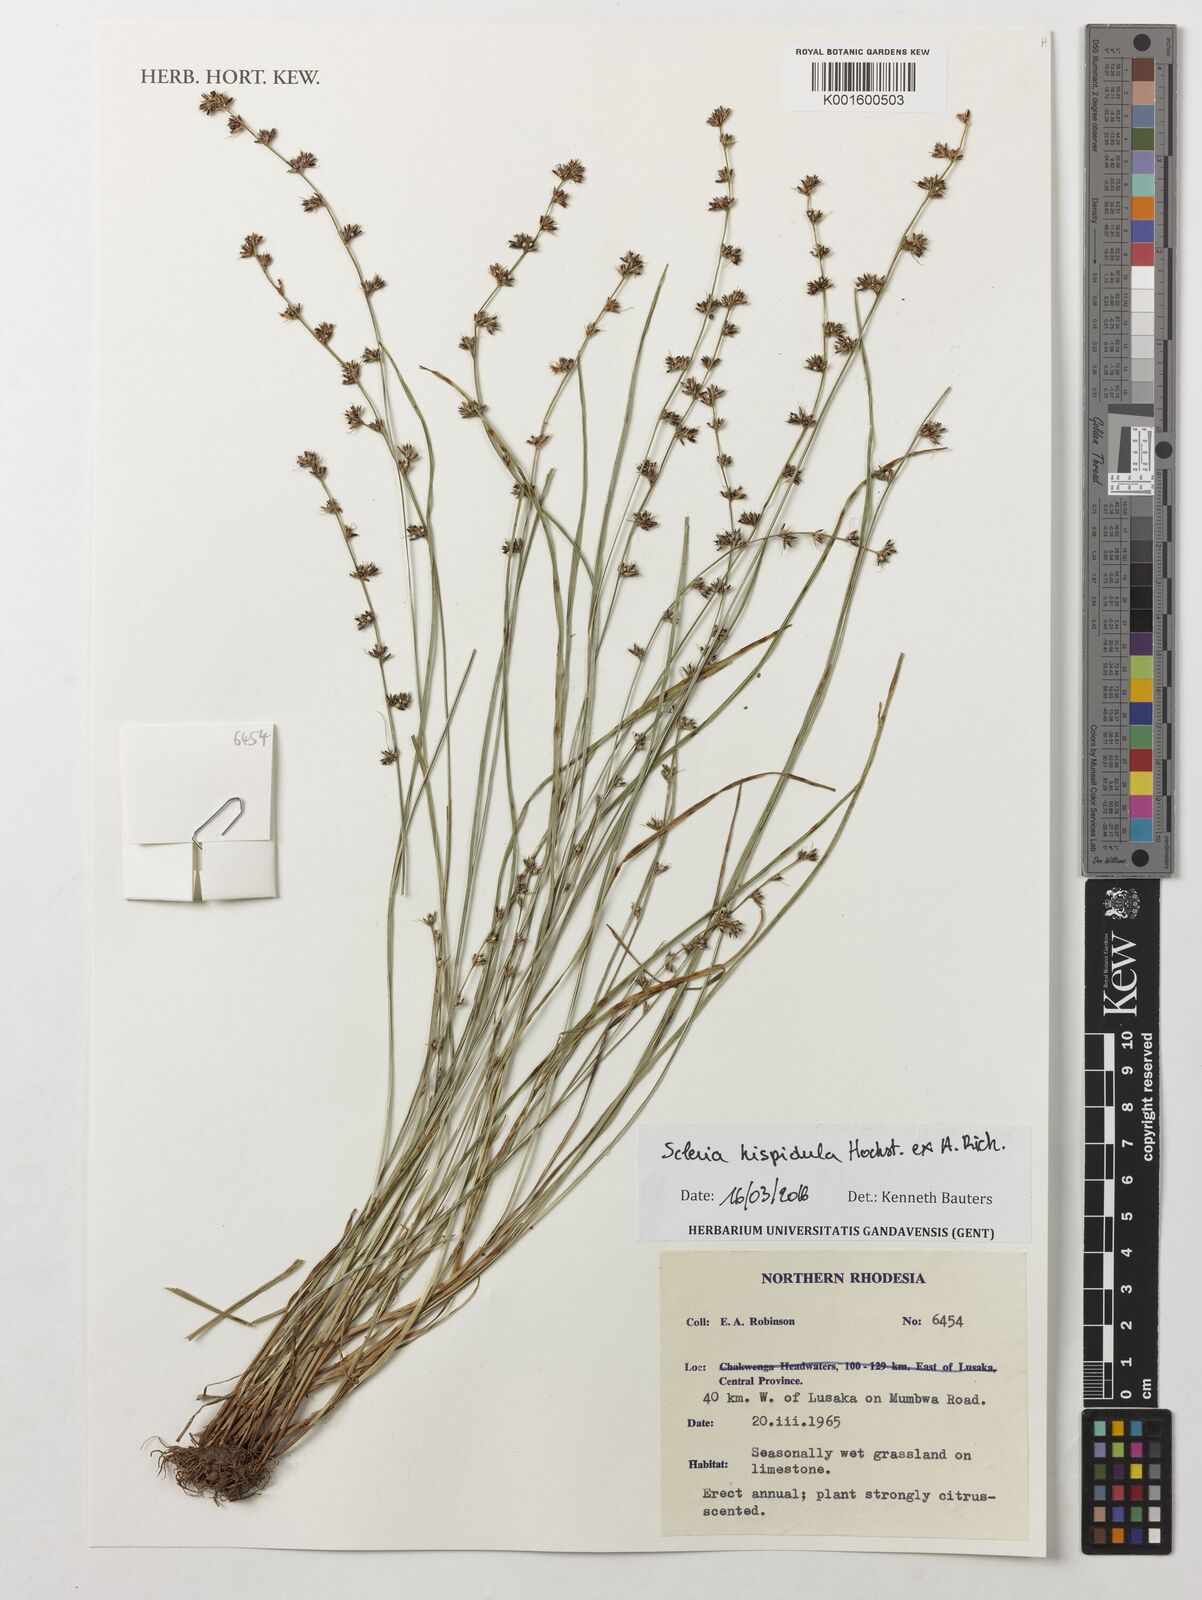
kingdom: Plantae
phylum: Tracheophyta
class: Liliopsida
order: Poales
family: Cyperaceae
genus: Scleria
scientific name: Scleria hispidula
